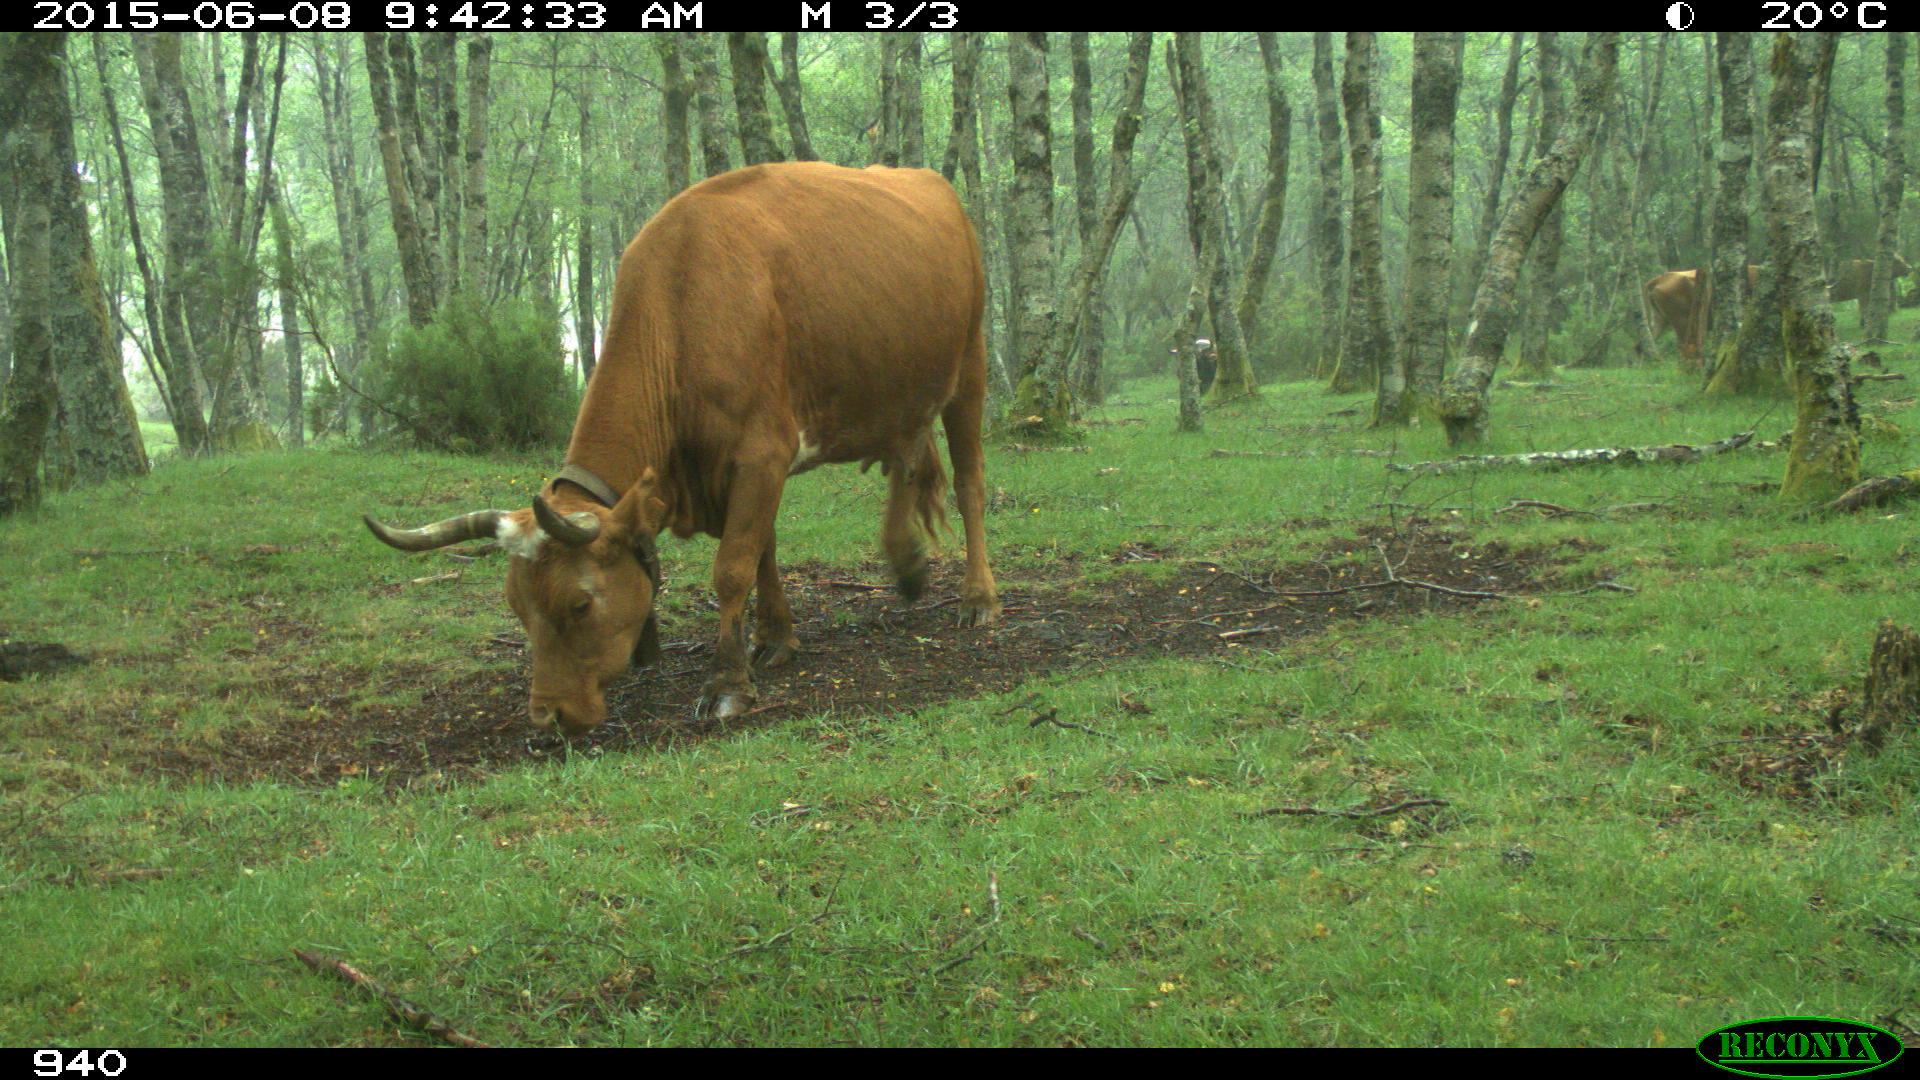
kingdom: Animalia
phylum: Chordata
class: Mammalia
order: Artiodactyla
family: Bovidae
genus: Bos
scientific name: Bos taurus
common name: Domesticated cattle
